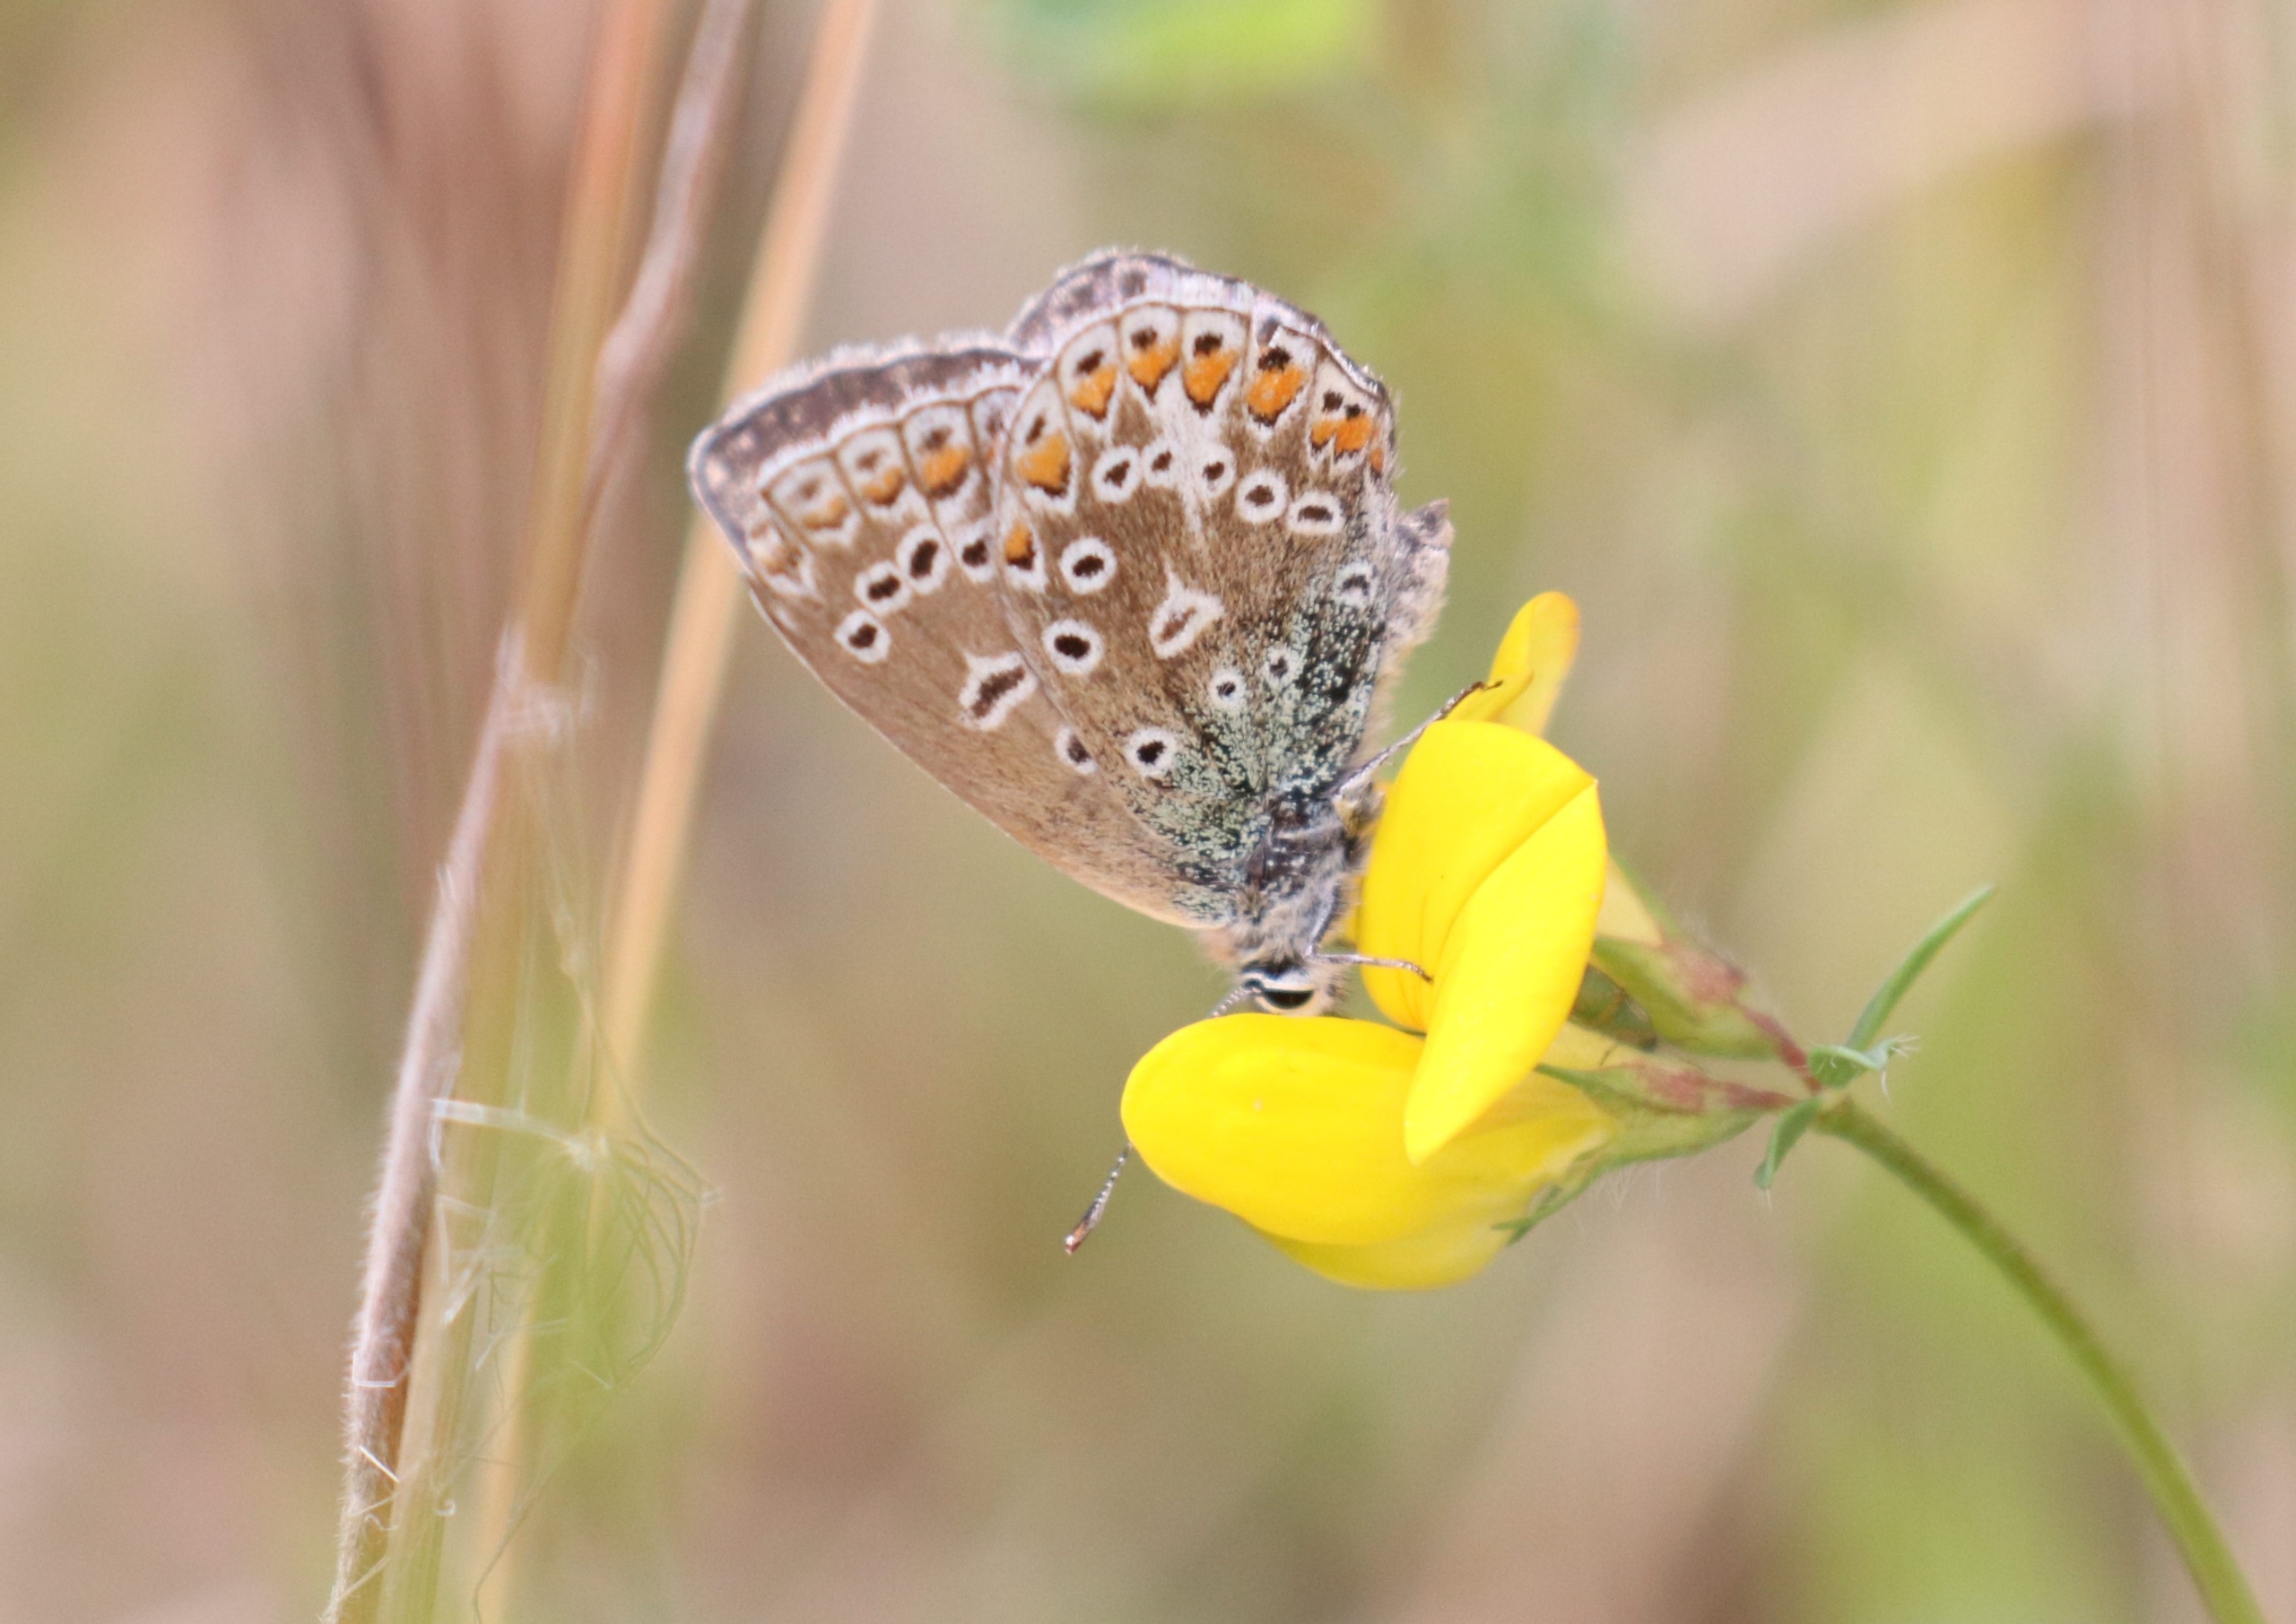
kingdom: Animalia
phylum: Arthropoda
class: Insecta
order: Lepidoptera
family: Lycaenidae
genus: Polyommatus
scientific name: Polyommatus icarus
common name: Almindelig blåfugl
